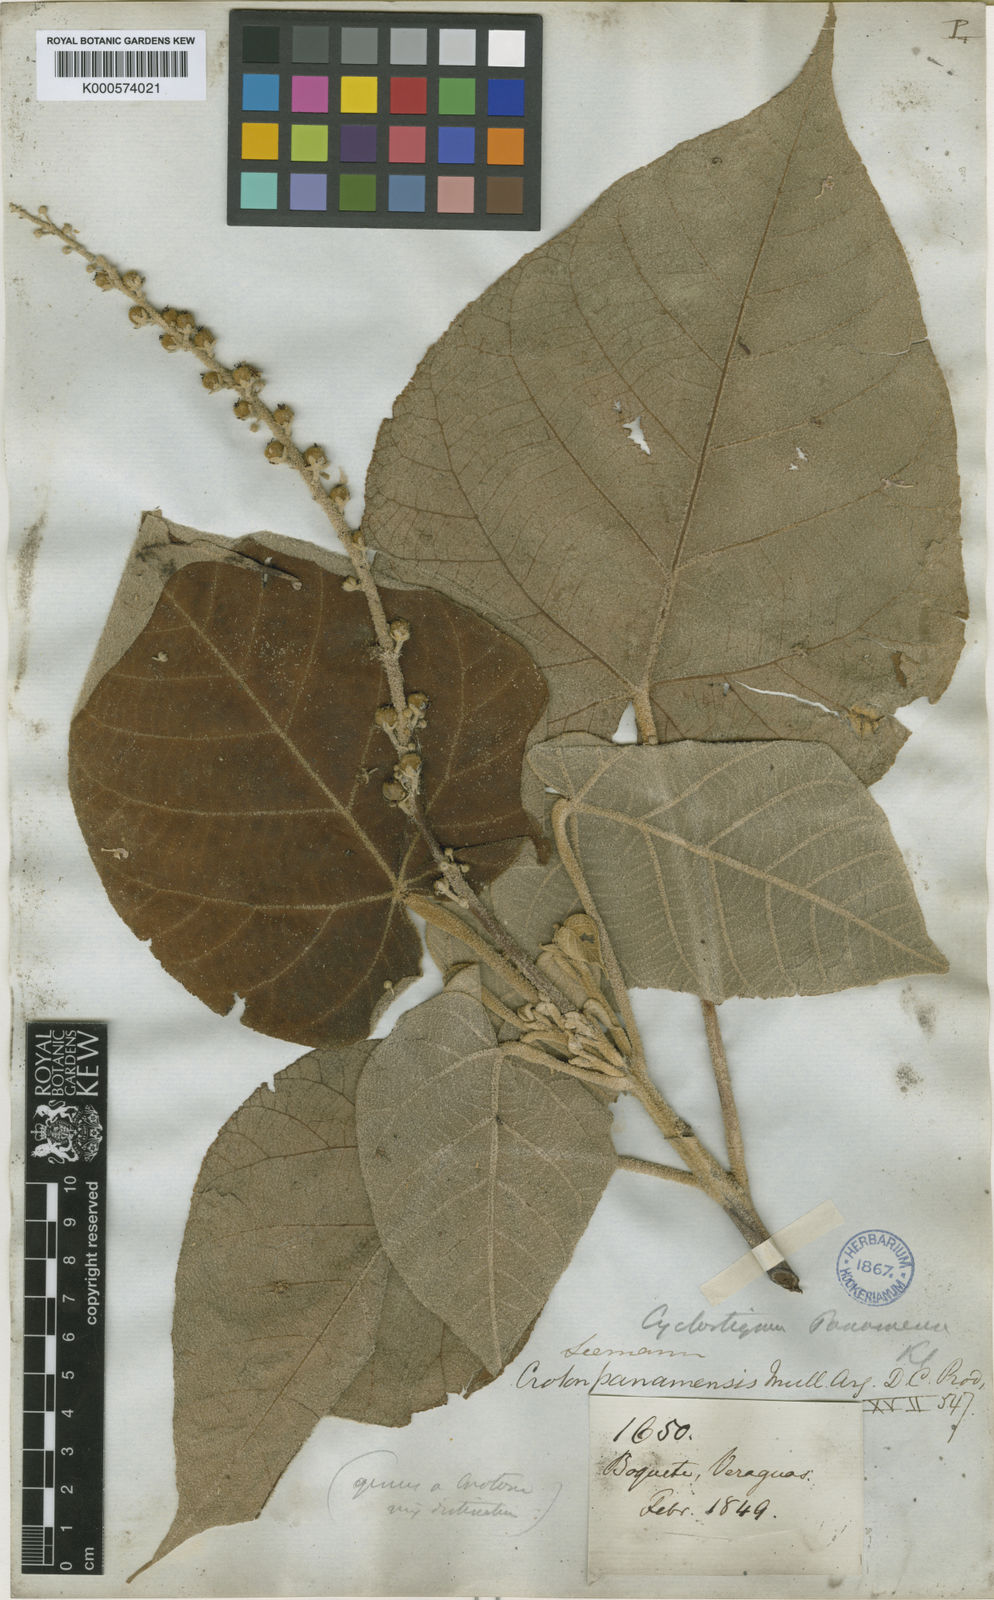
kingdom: Plantae
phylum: Tracheophyta
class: Magnoliopsida
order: Malpighiales
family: Euphorbiaceae
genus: Croton
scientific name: Croton
